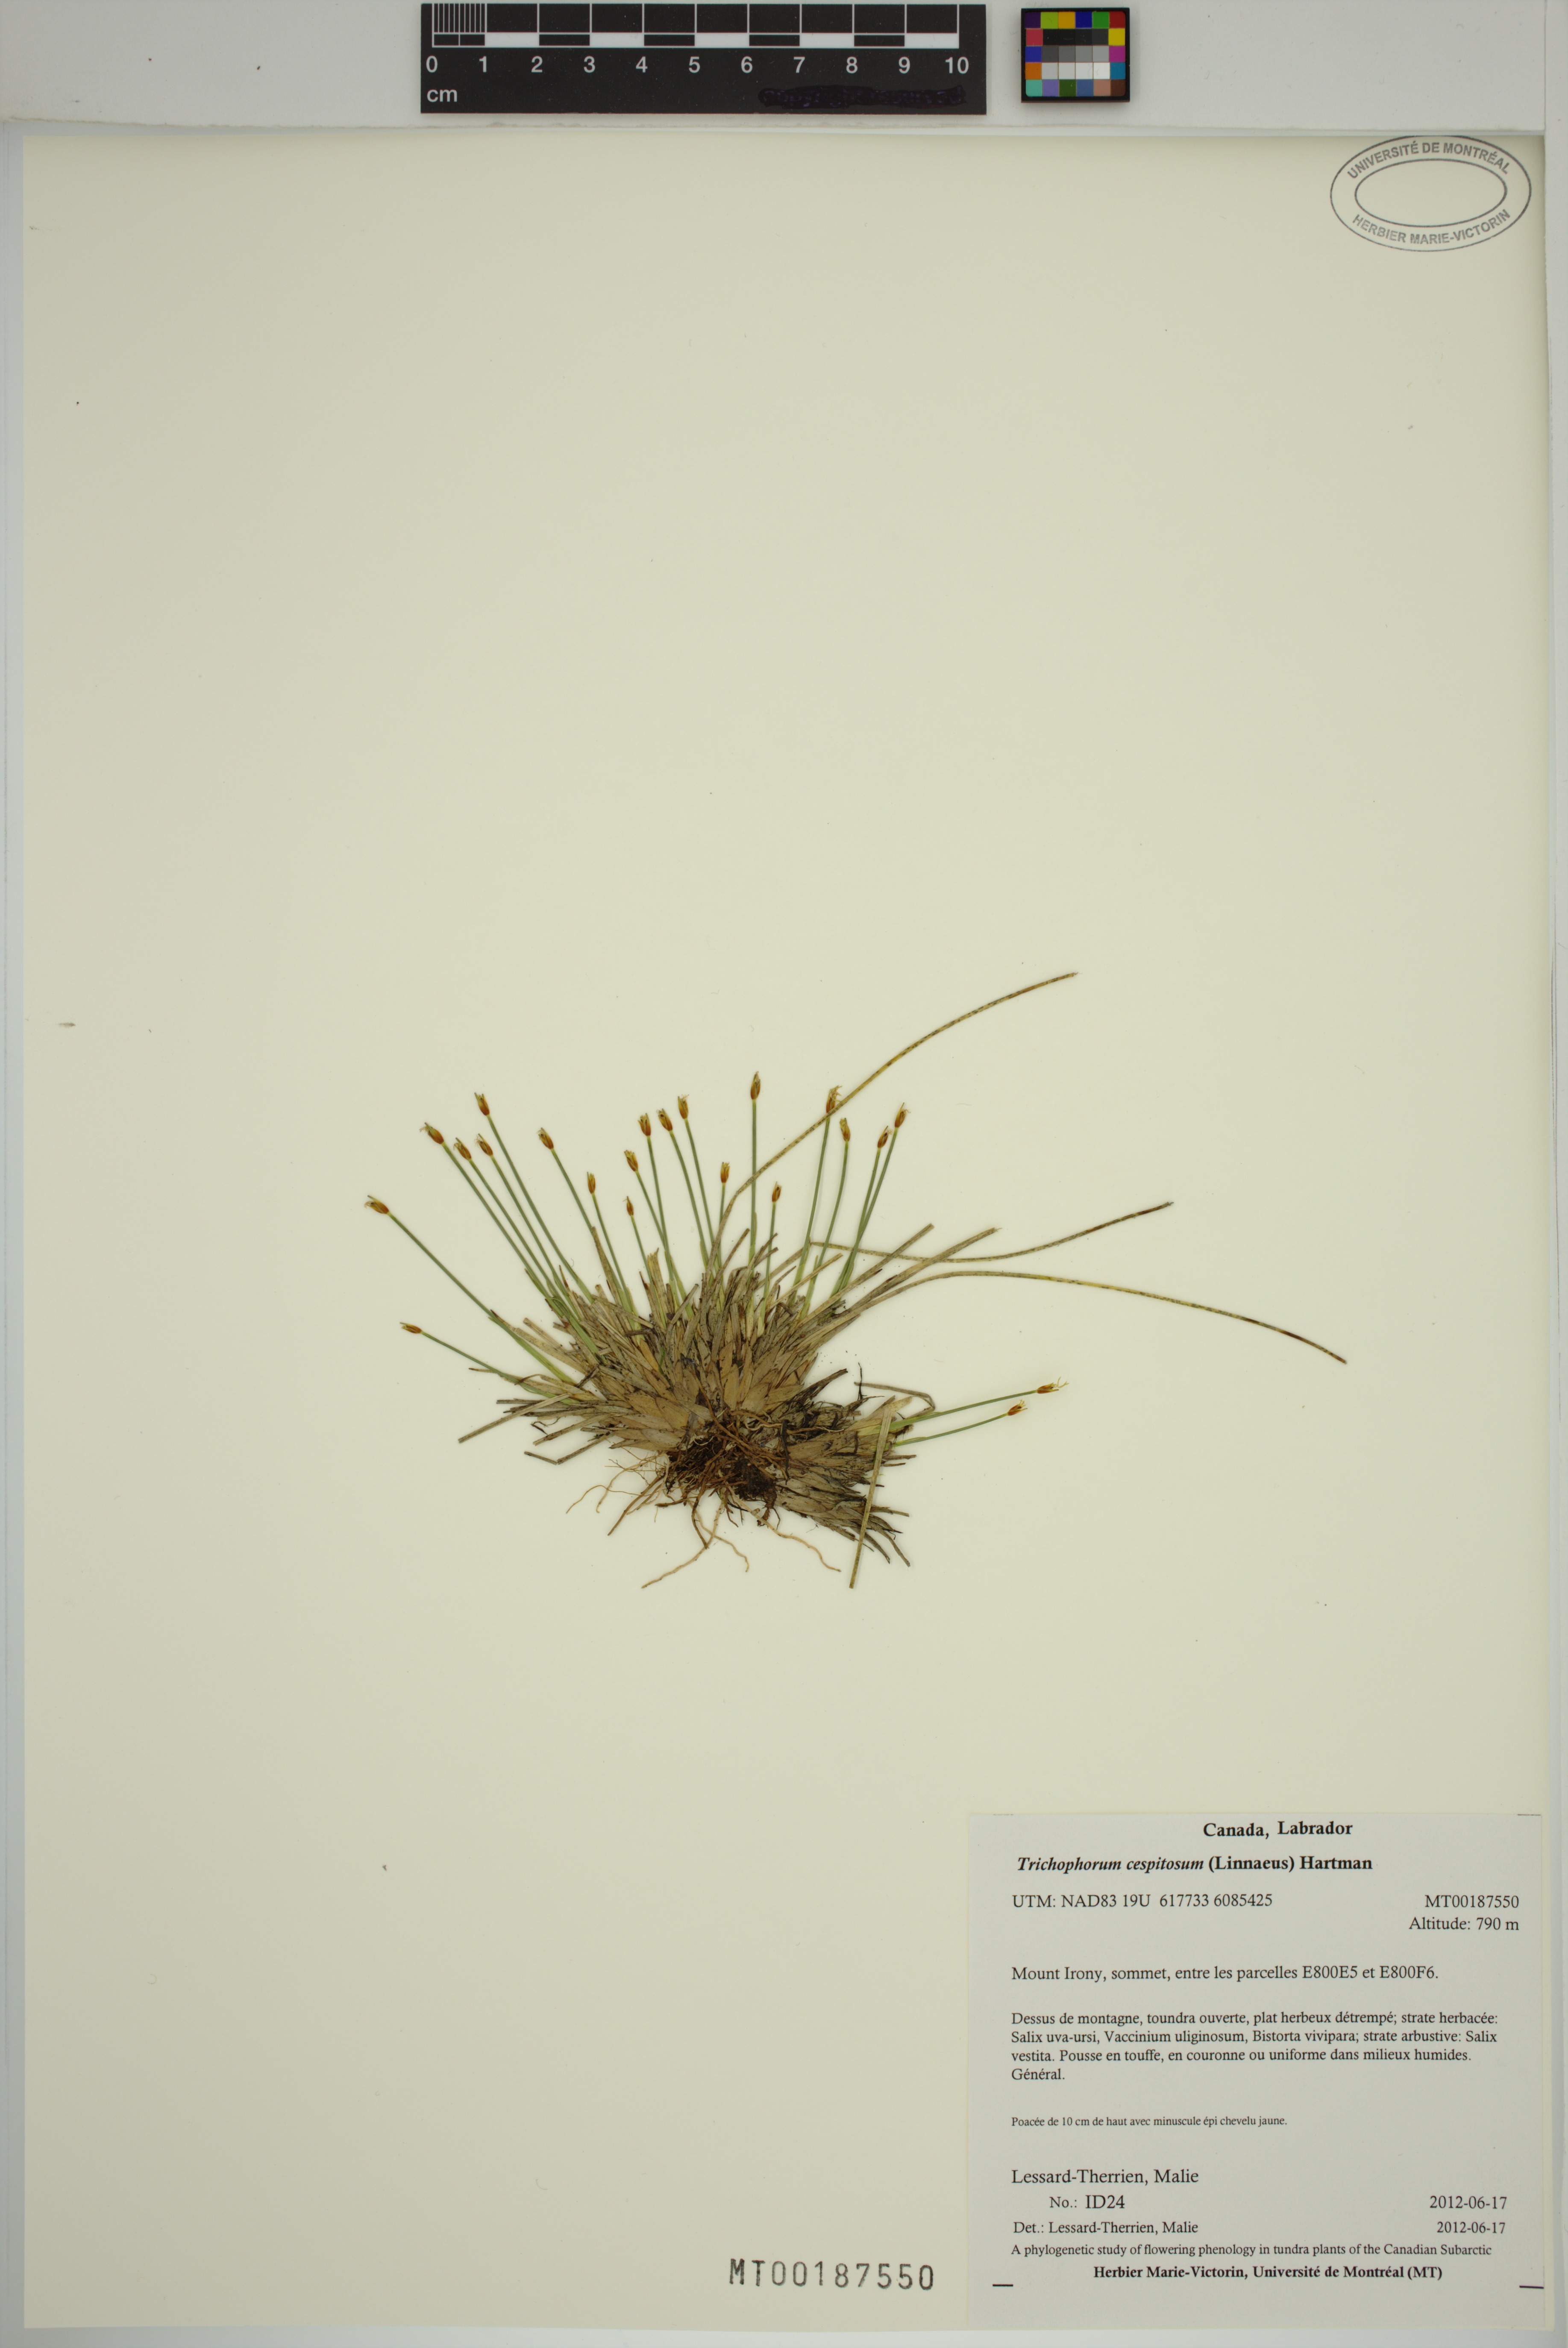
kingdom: Plantae
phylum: Tracheophyta
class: Liliopsida
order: Poales
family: Cyperaceae
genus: Trichophorum
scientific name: Trichophorum cespitosum
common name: Cespitose bulrush
